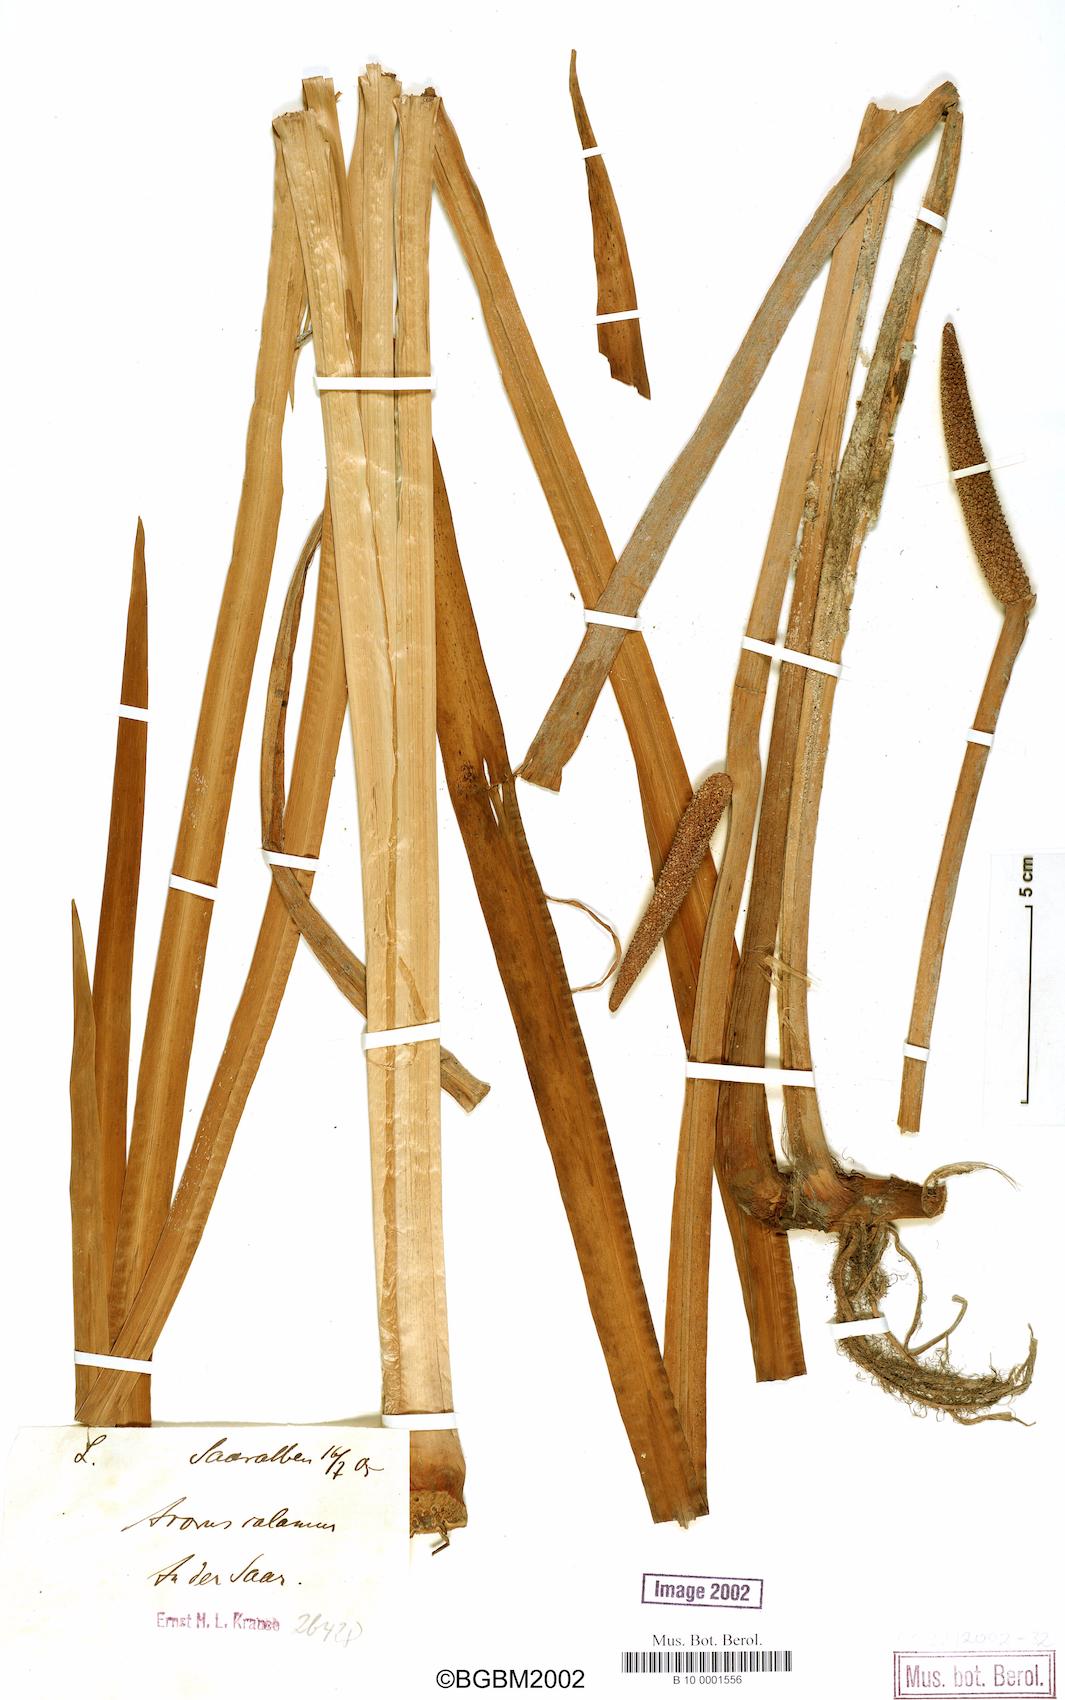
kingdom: Plantae
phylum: Tracheophyta
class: Liliopsida
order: Acorales
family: Acoraceae
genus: Acorus
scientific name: Acorus calamus
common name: Sweet-flag
